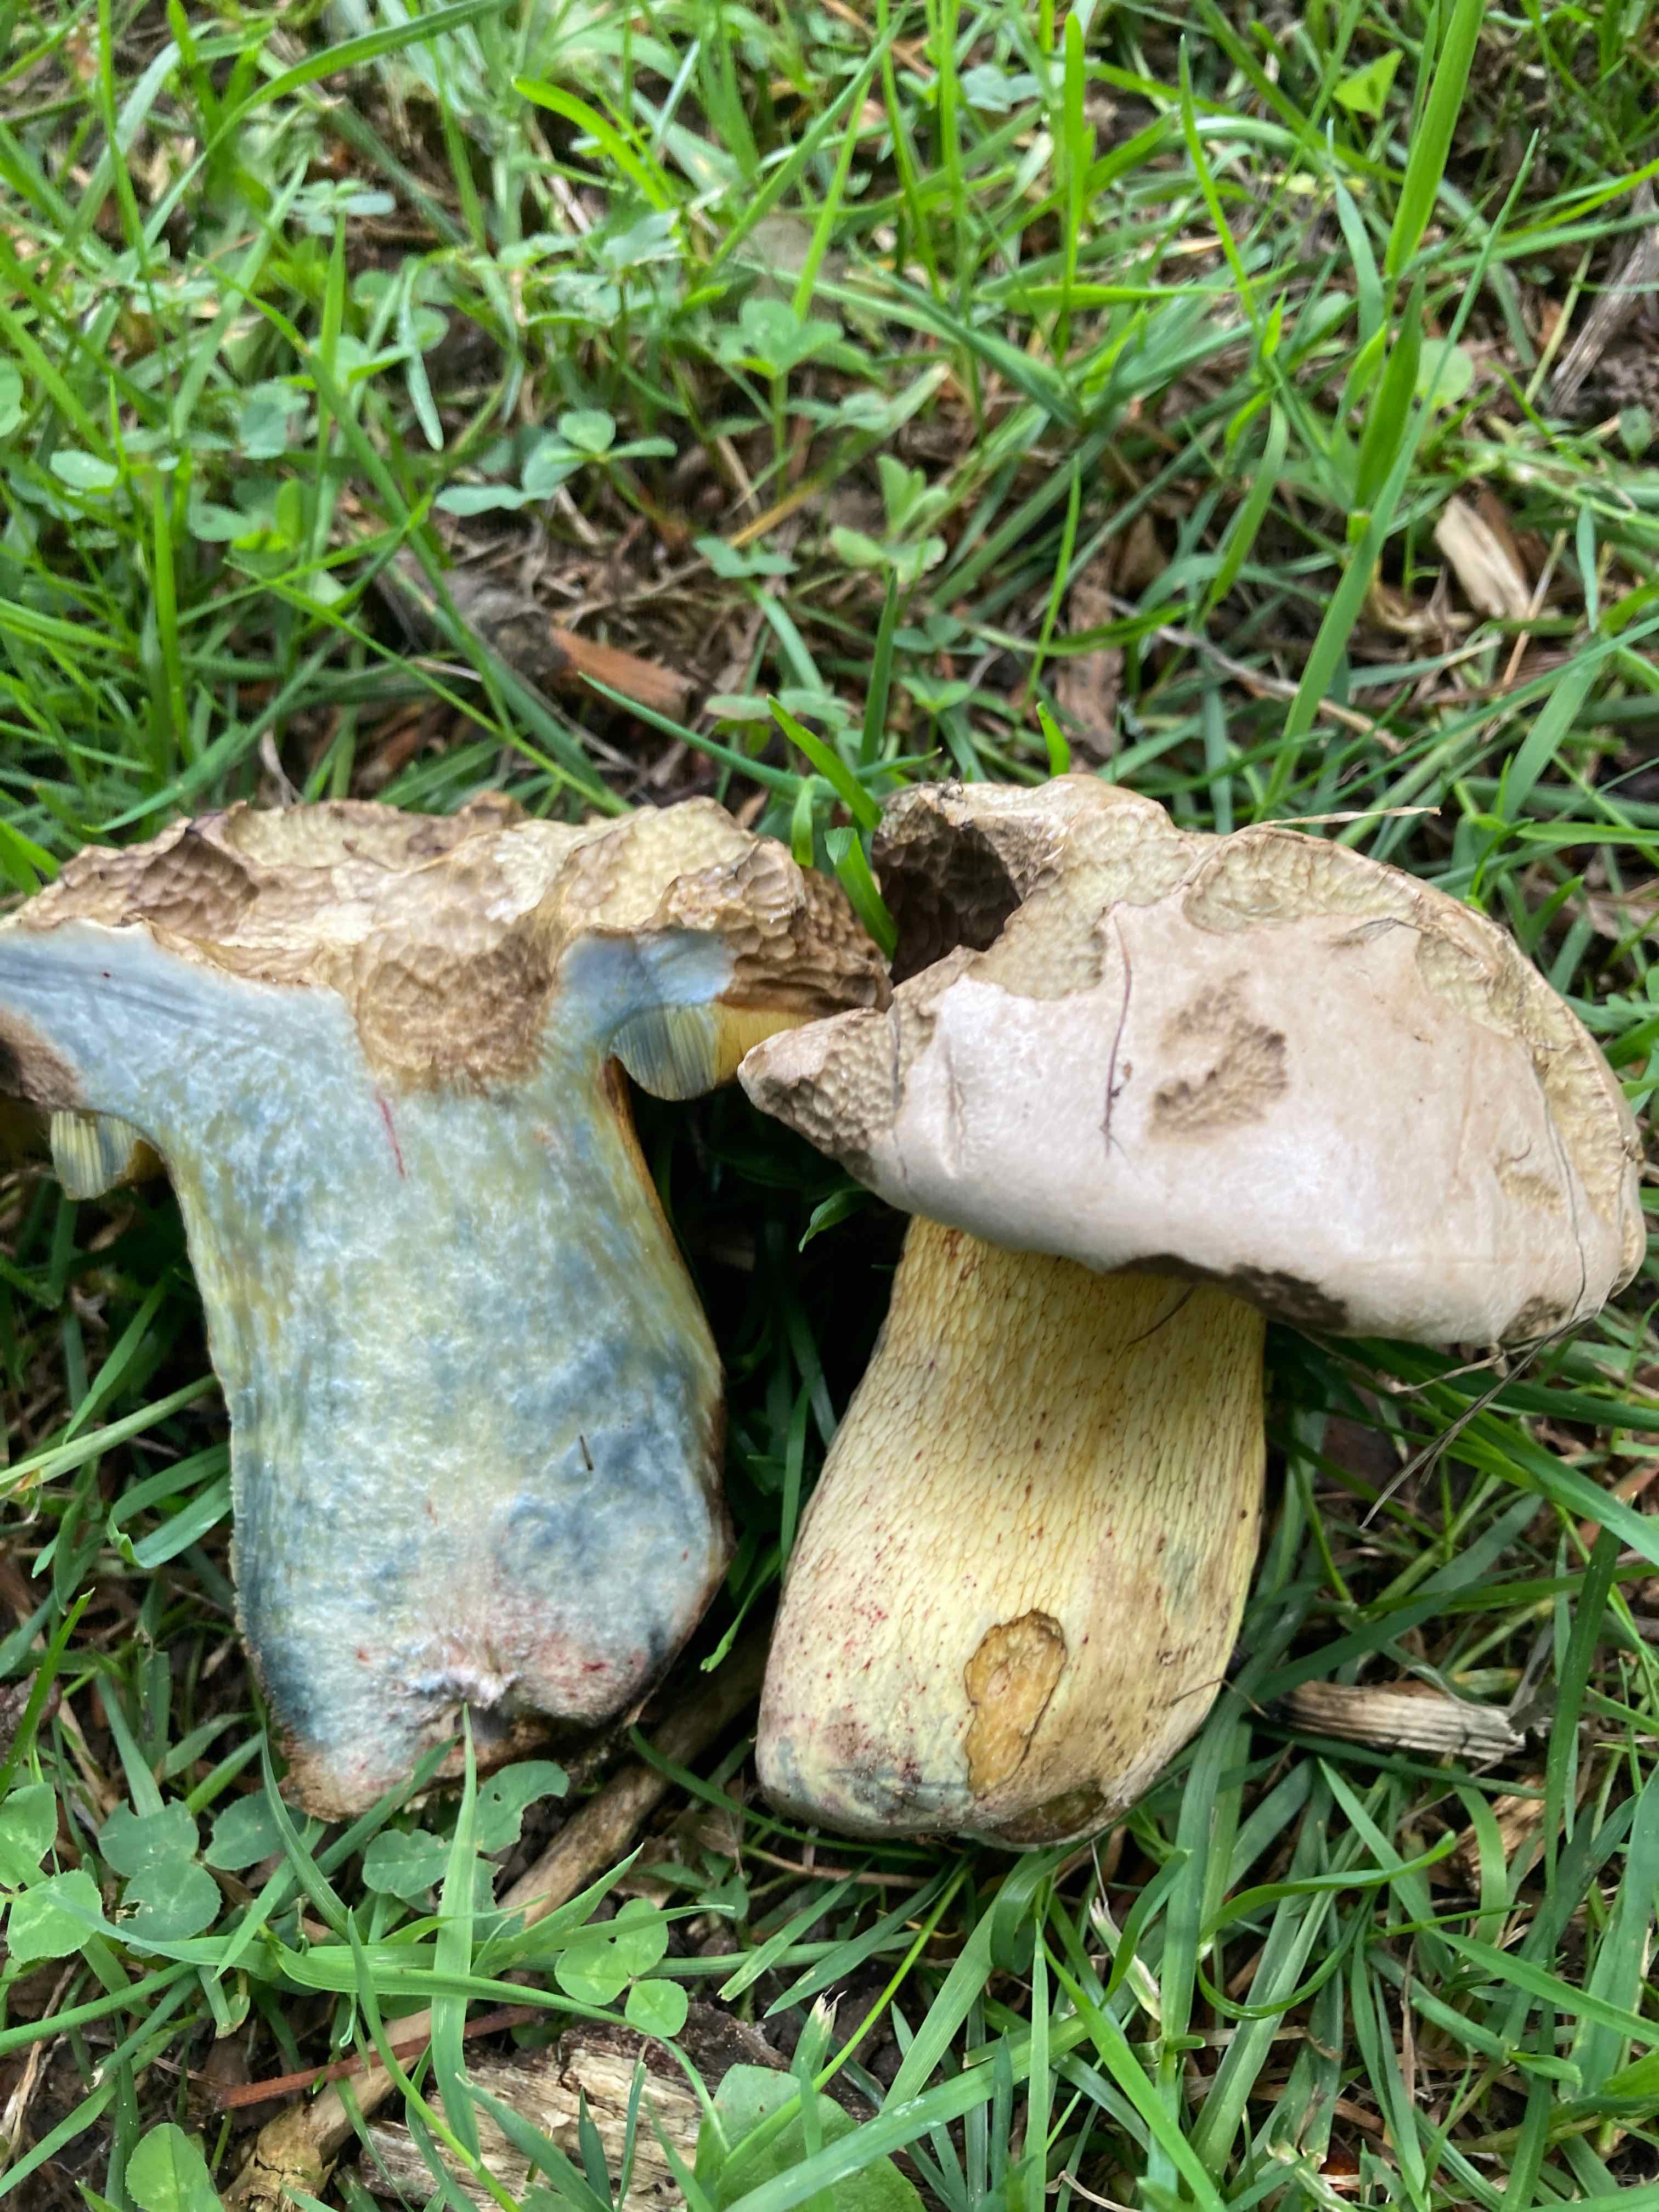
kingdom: Fungi
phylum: Basidiomycota
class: Agaricomycetes
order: Boletales
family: Boletaceae
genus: Caloboletus
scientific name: Caloboletus radicans
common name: rod-rørhat
